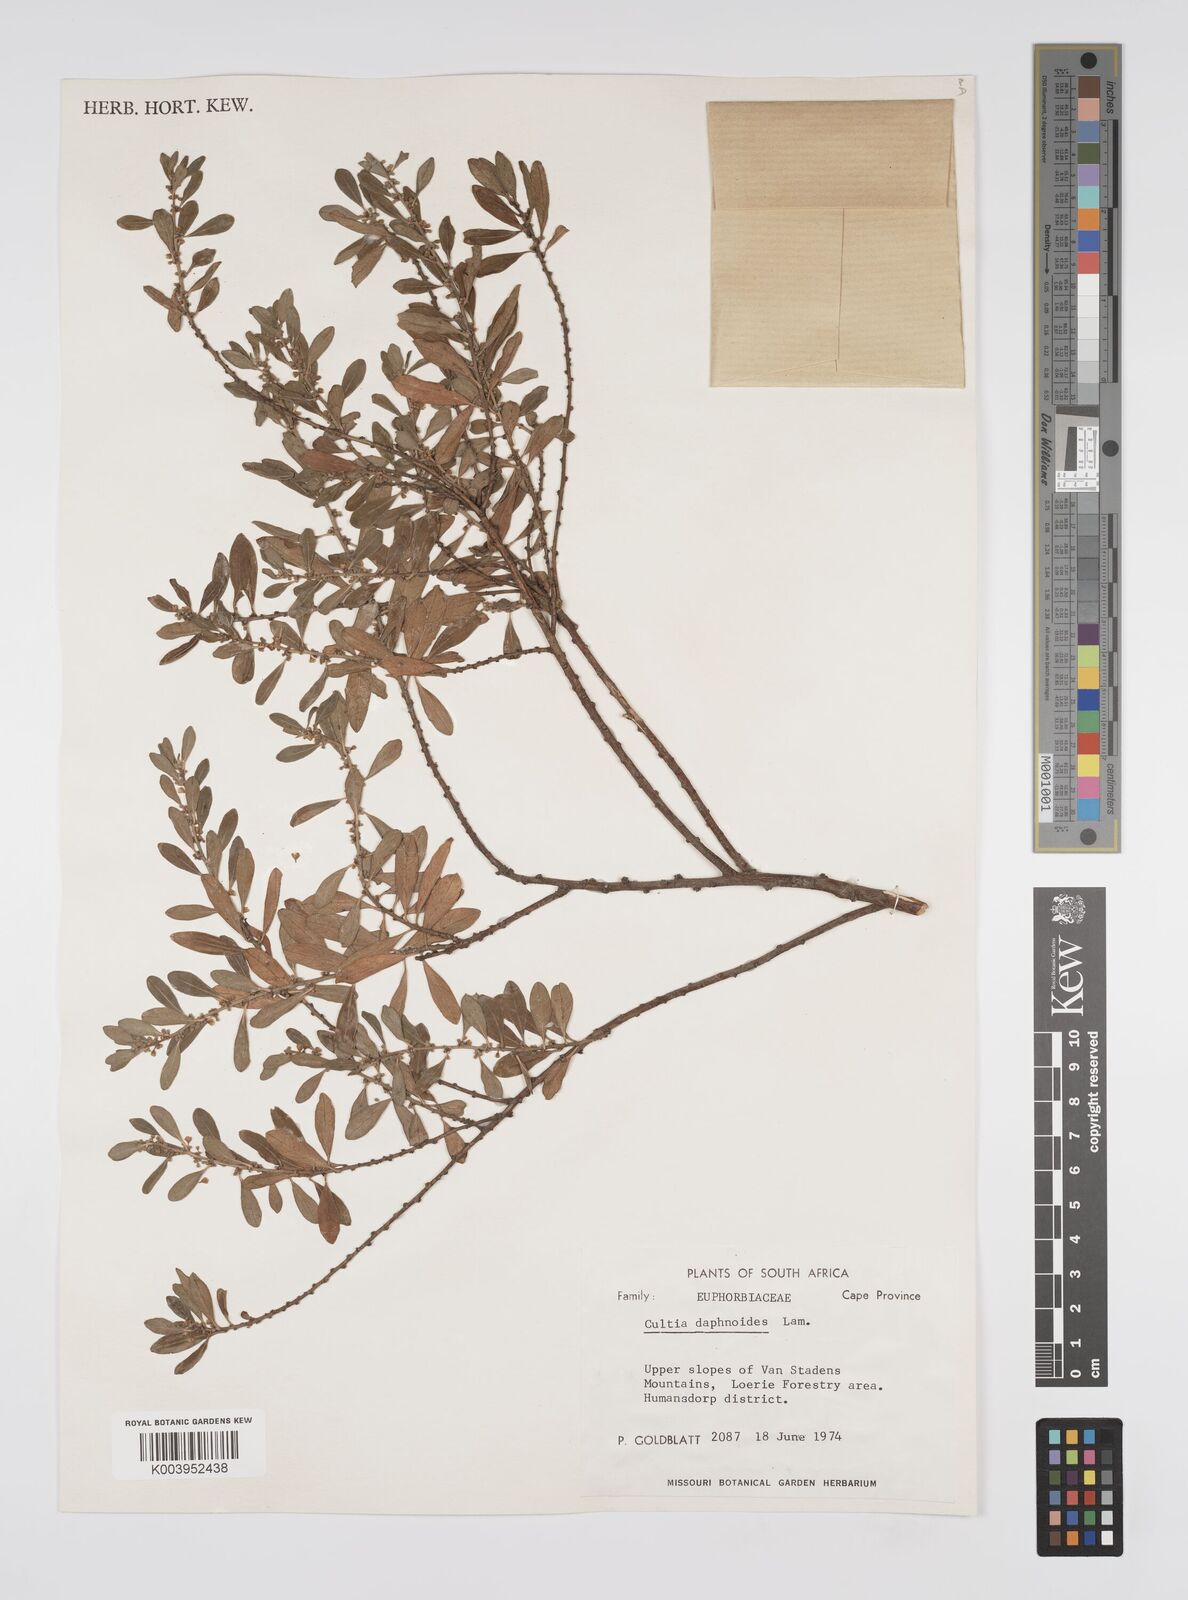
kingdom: Plantae
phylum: Tracheophyta
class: Magnoliopsida
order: Malpighiales
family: Peraceae
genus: Clutia
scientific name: Clutia daphnoides
